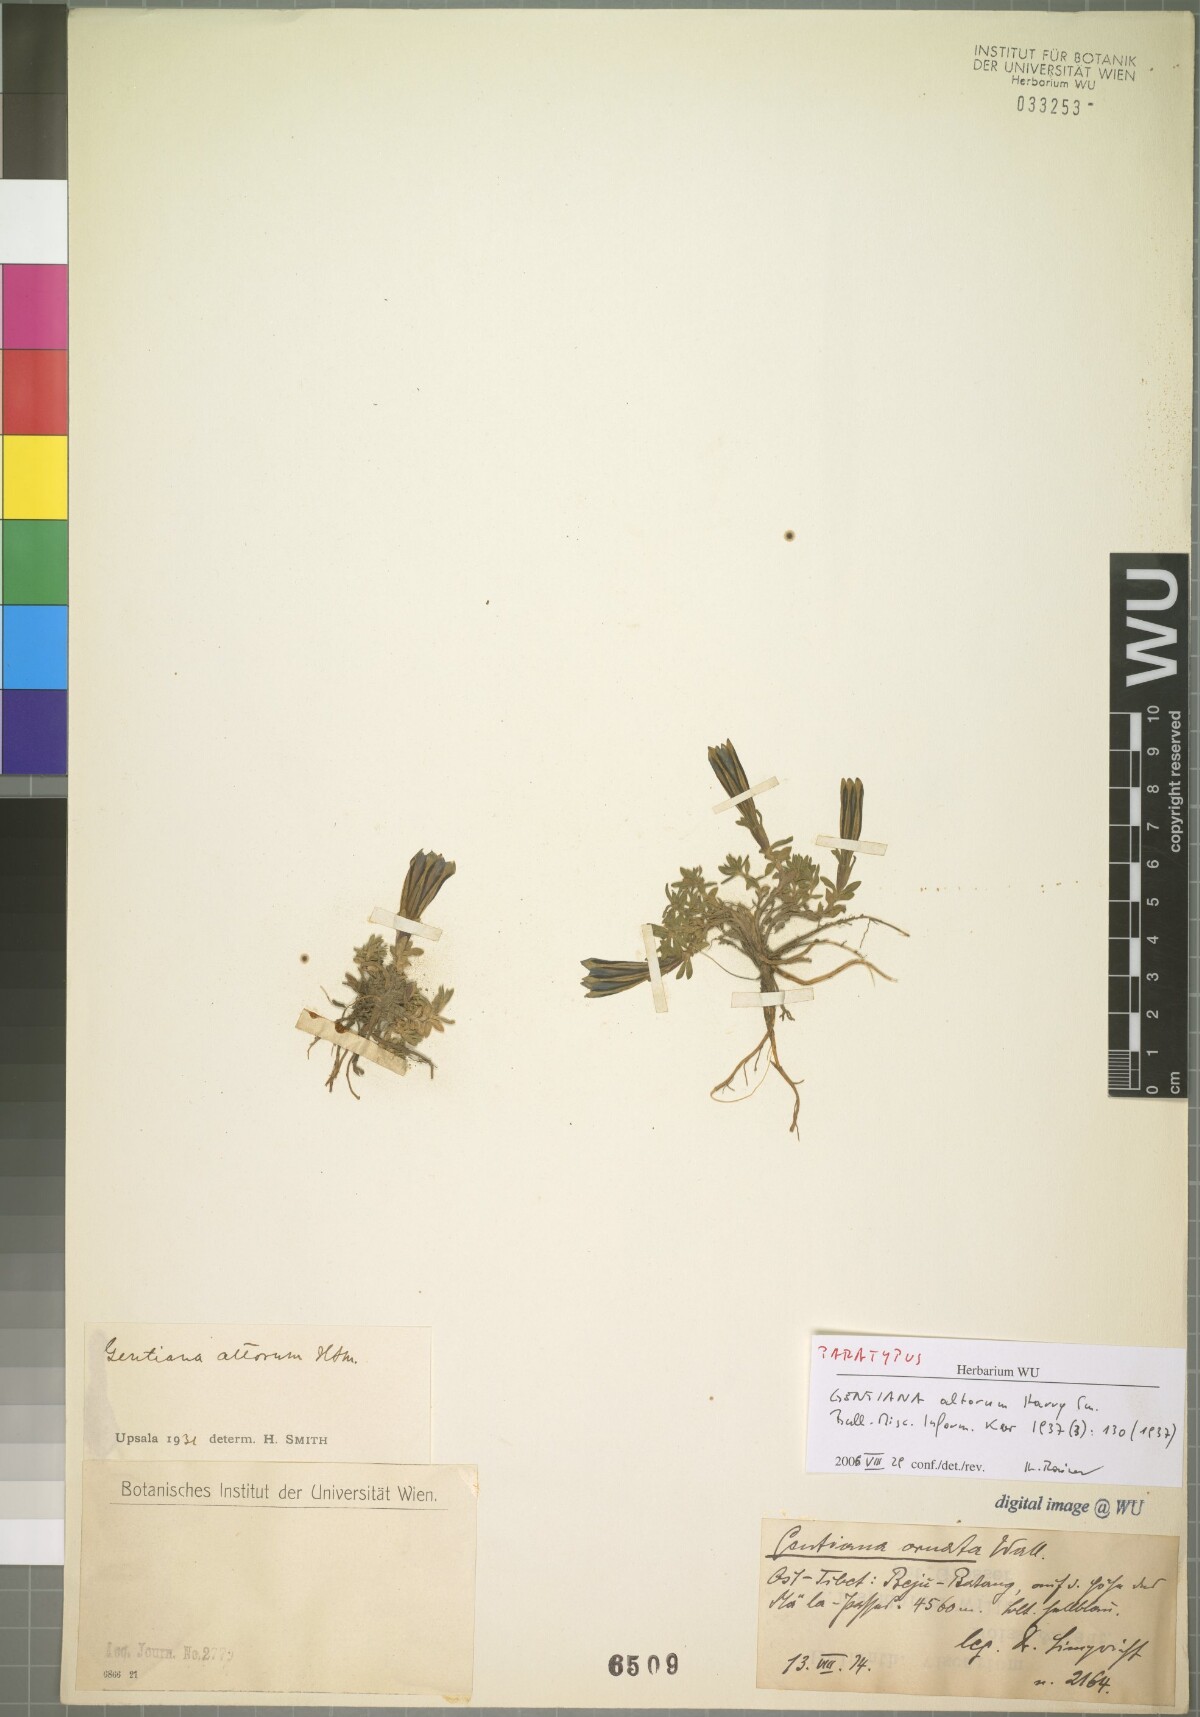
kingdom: Plantae
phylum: Tracheophyta
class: Magnoliopsida
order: Gentianales
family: Gentianaceae
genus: Gentiana
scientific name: Gentiana altorum
